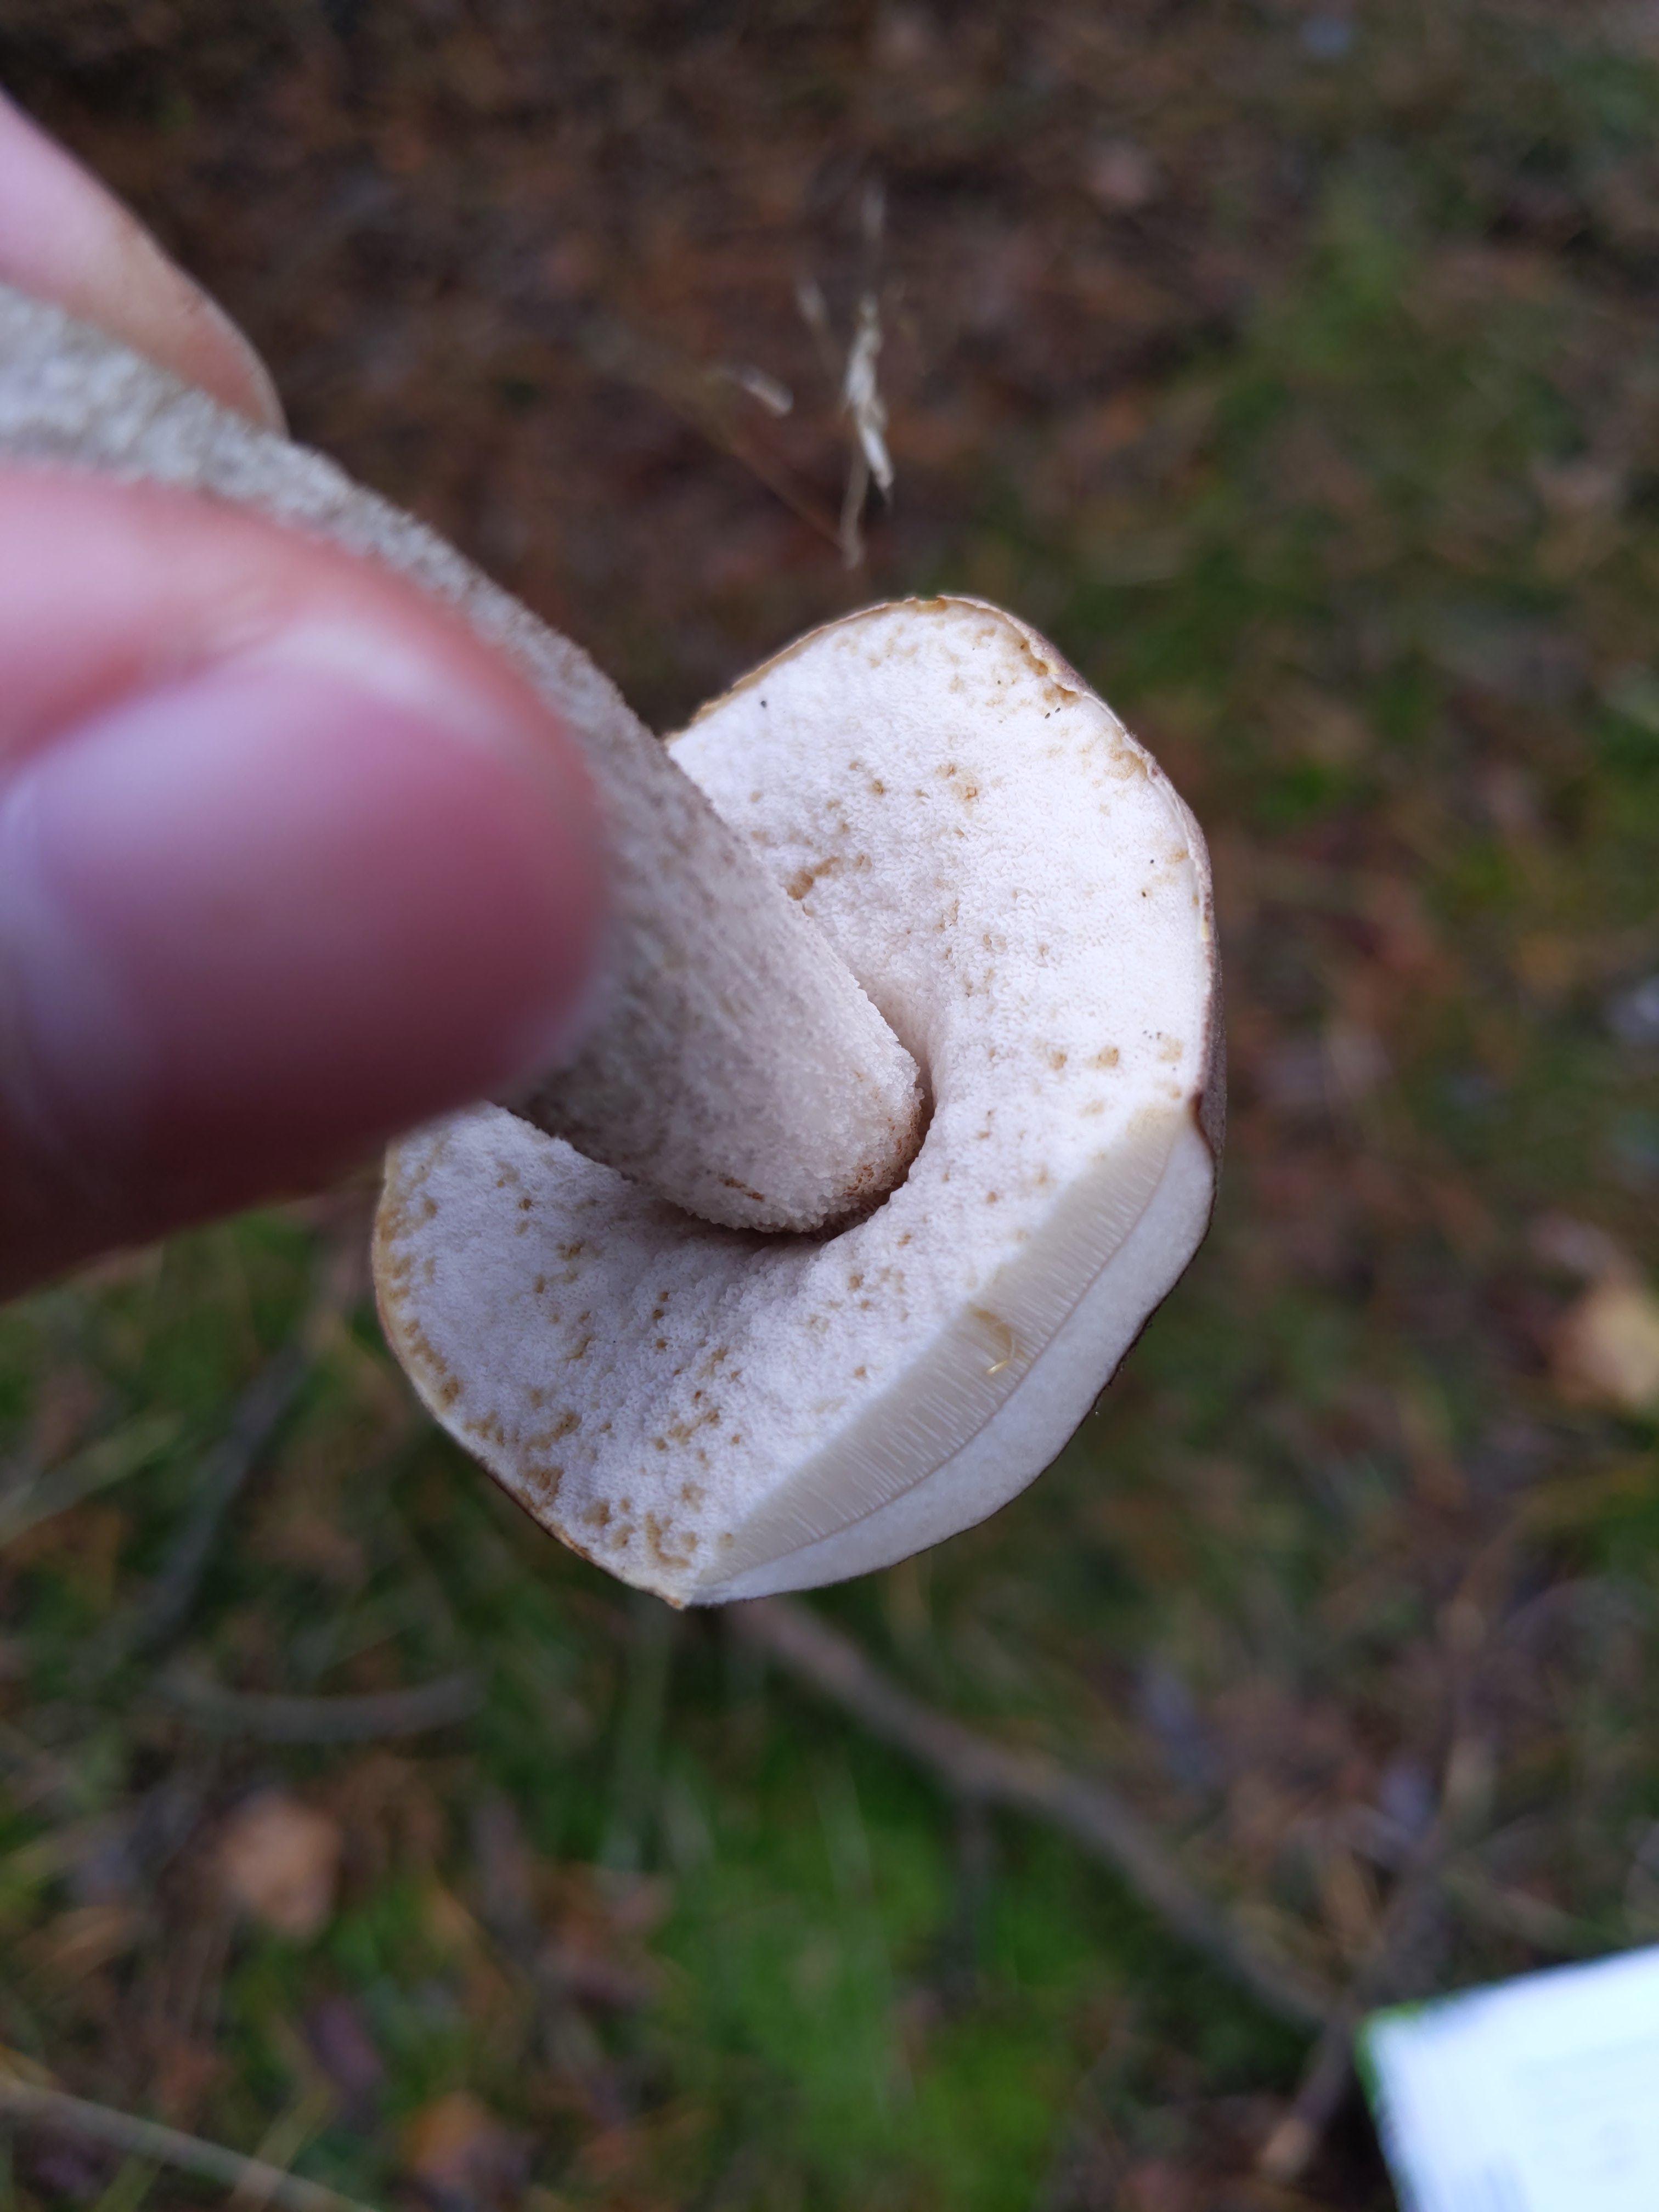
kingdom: Fungi
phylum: Basidiomycota
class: Agaricomycetes
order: Boletales
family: Boletaceae
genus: Leccinum
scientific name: Leccinum scabrum
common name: brun skælrørhat
